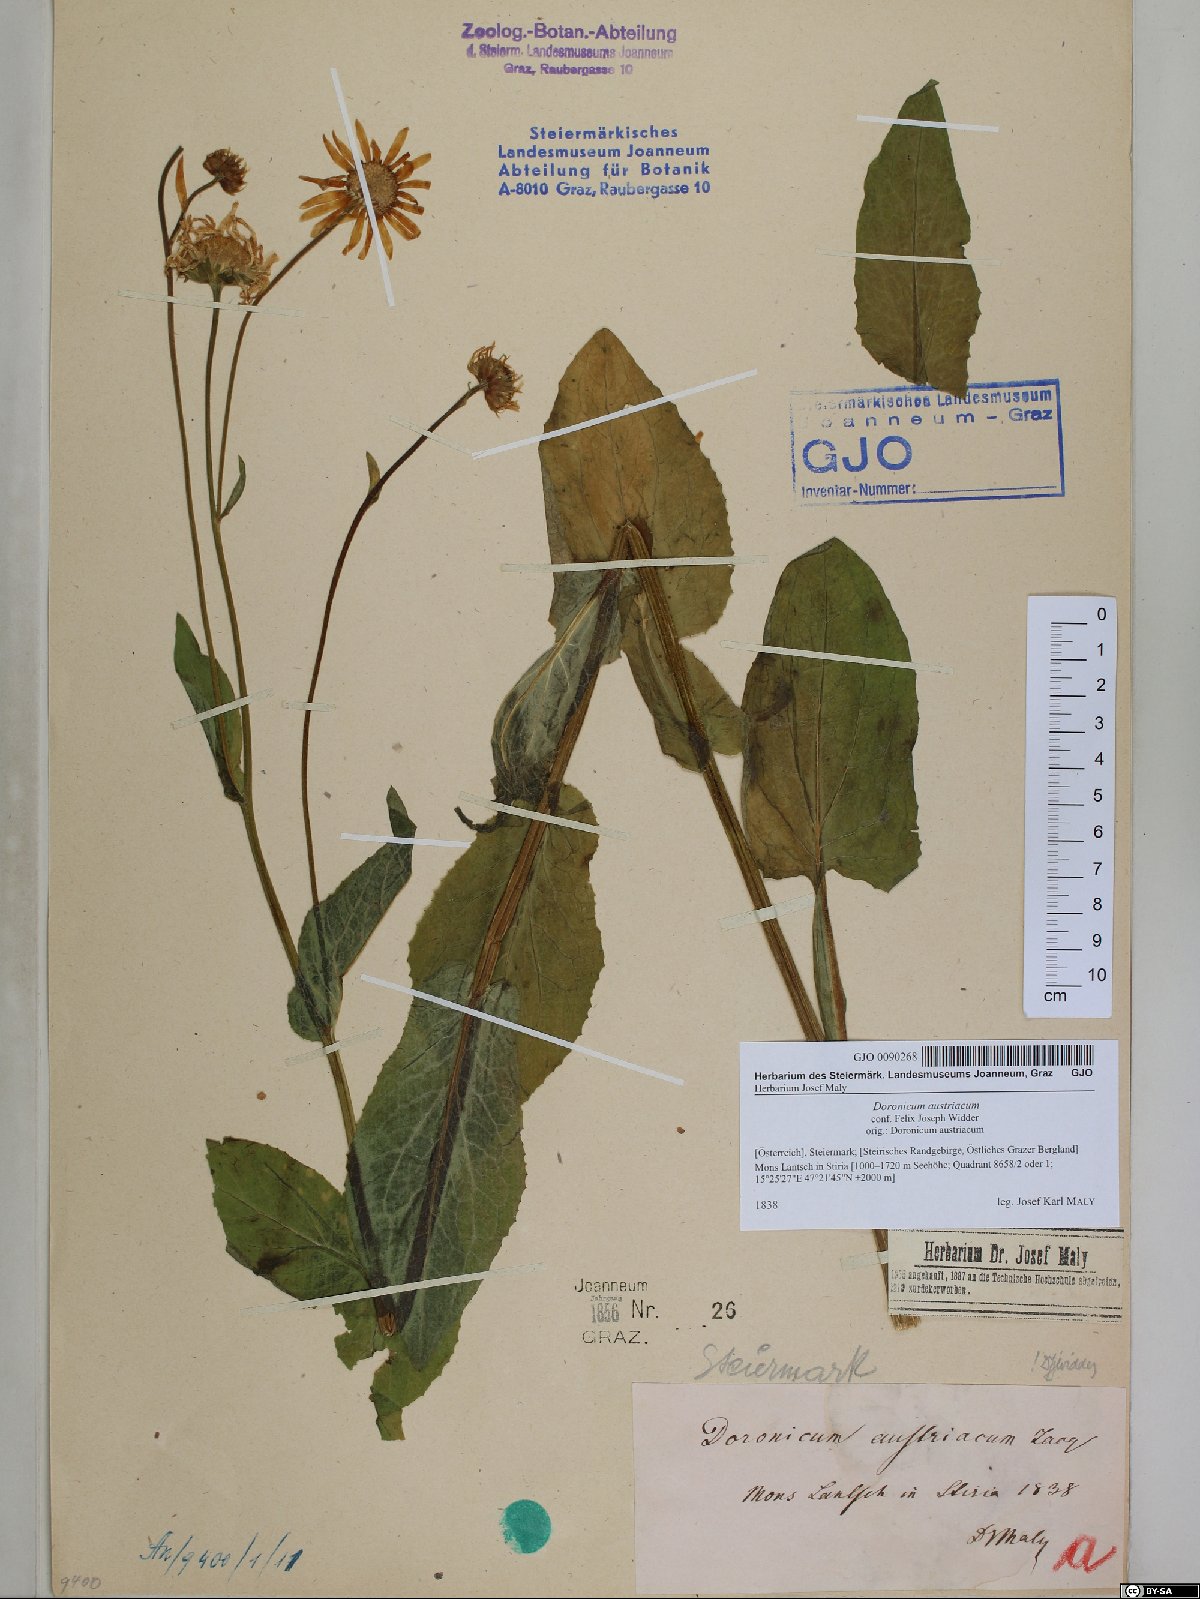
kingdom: Plantae
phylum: Tracheophyta
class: Magnoliopsida
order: Asterales
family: Asteraceae
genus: Doronicum
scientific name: Doronicum austriacum
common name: Austrian leopard's-bane
